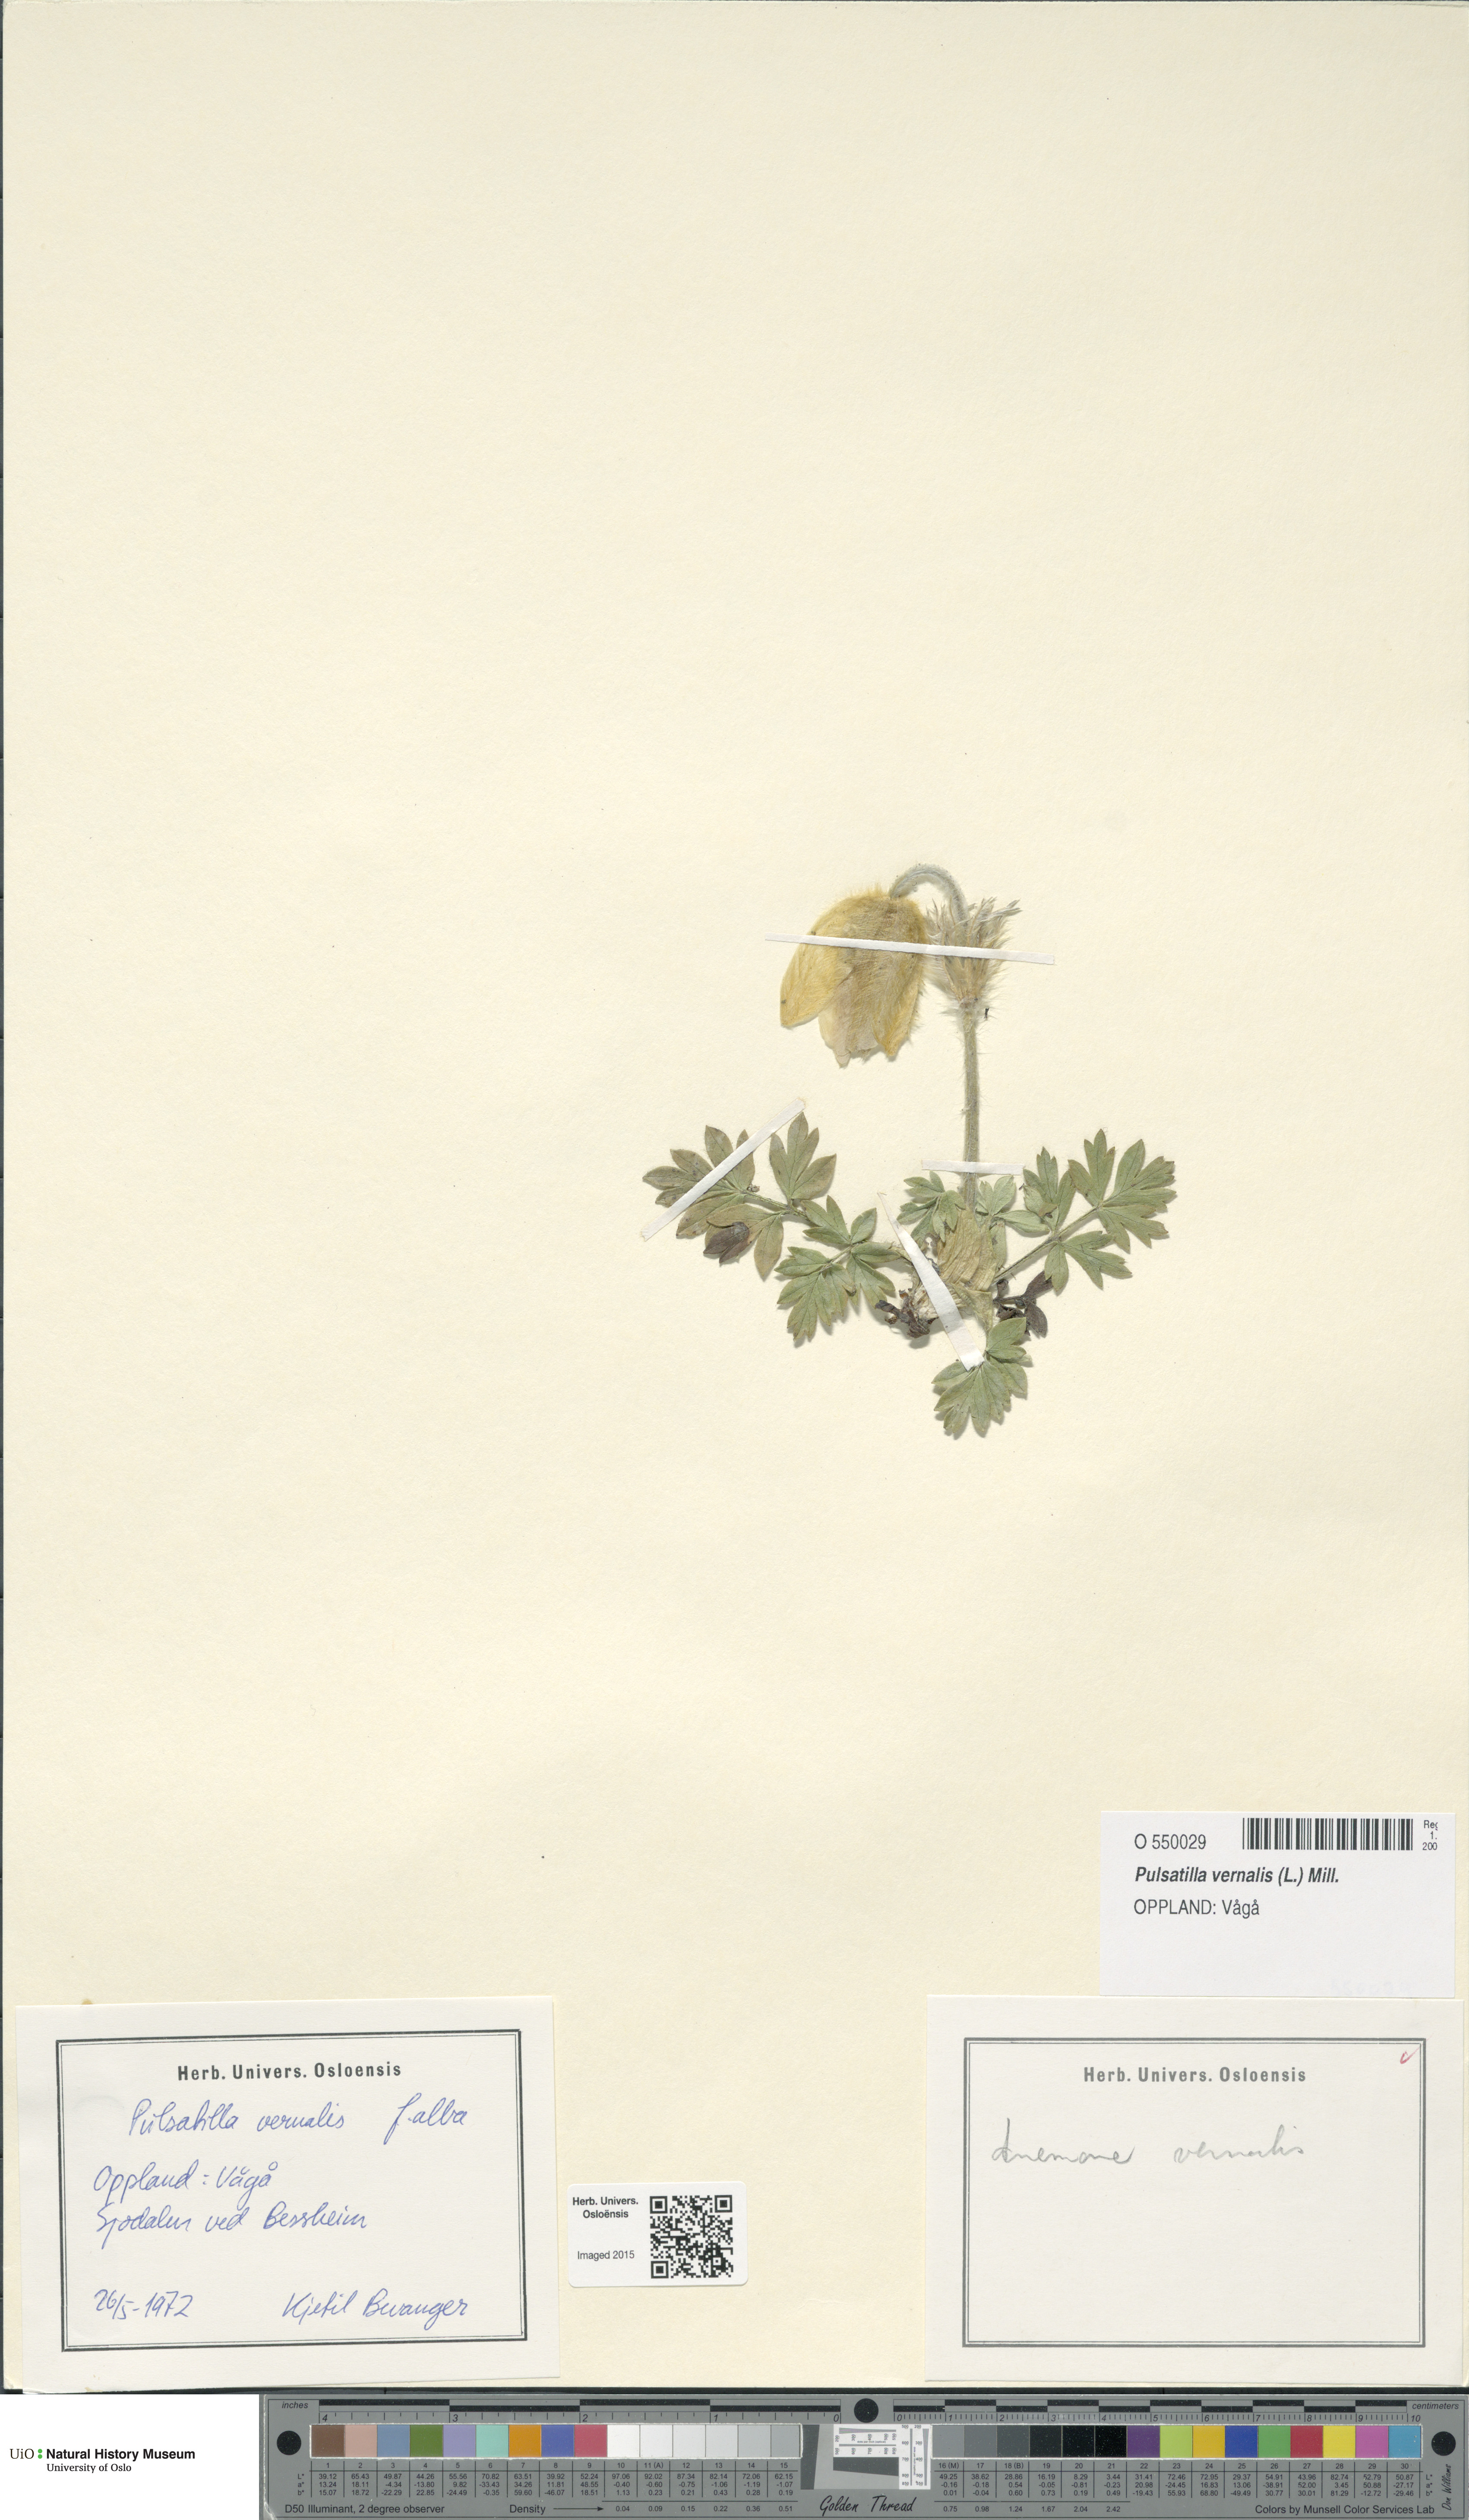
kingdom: Plantae
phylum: Tracheophyta
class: Magnoliopsida
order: Ranunculales
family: Ranunculaceae
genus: Pulsatilla
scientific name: Pulsatilla vernalis
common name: Spring pasque flower
